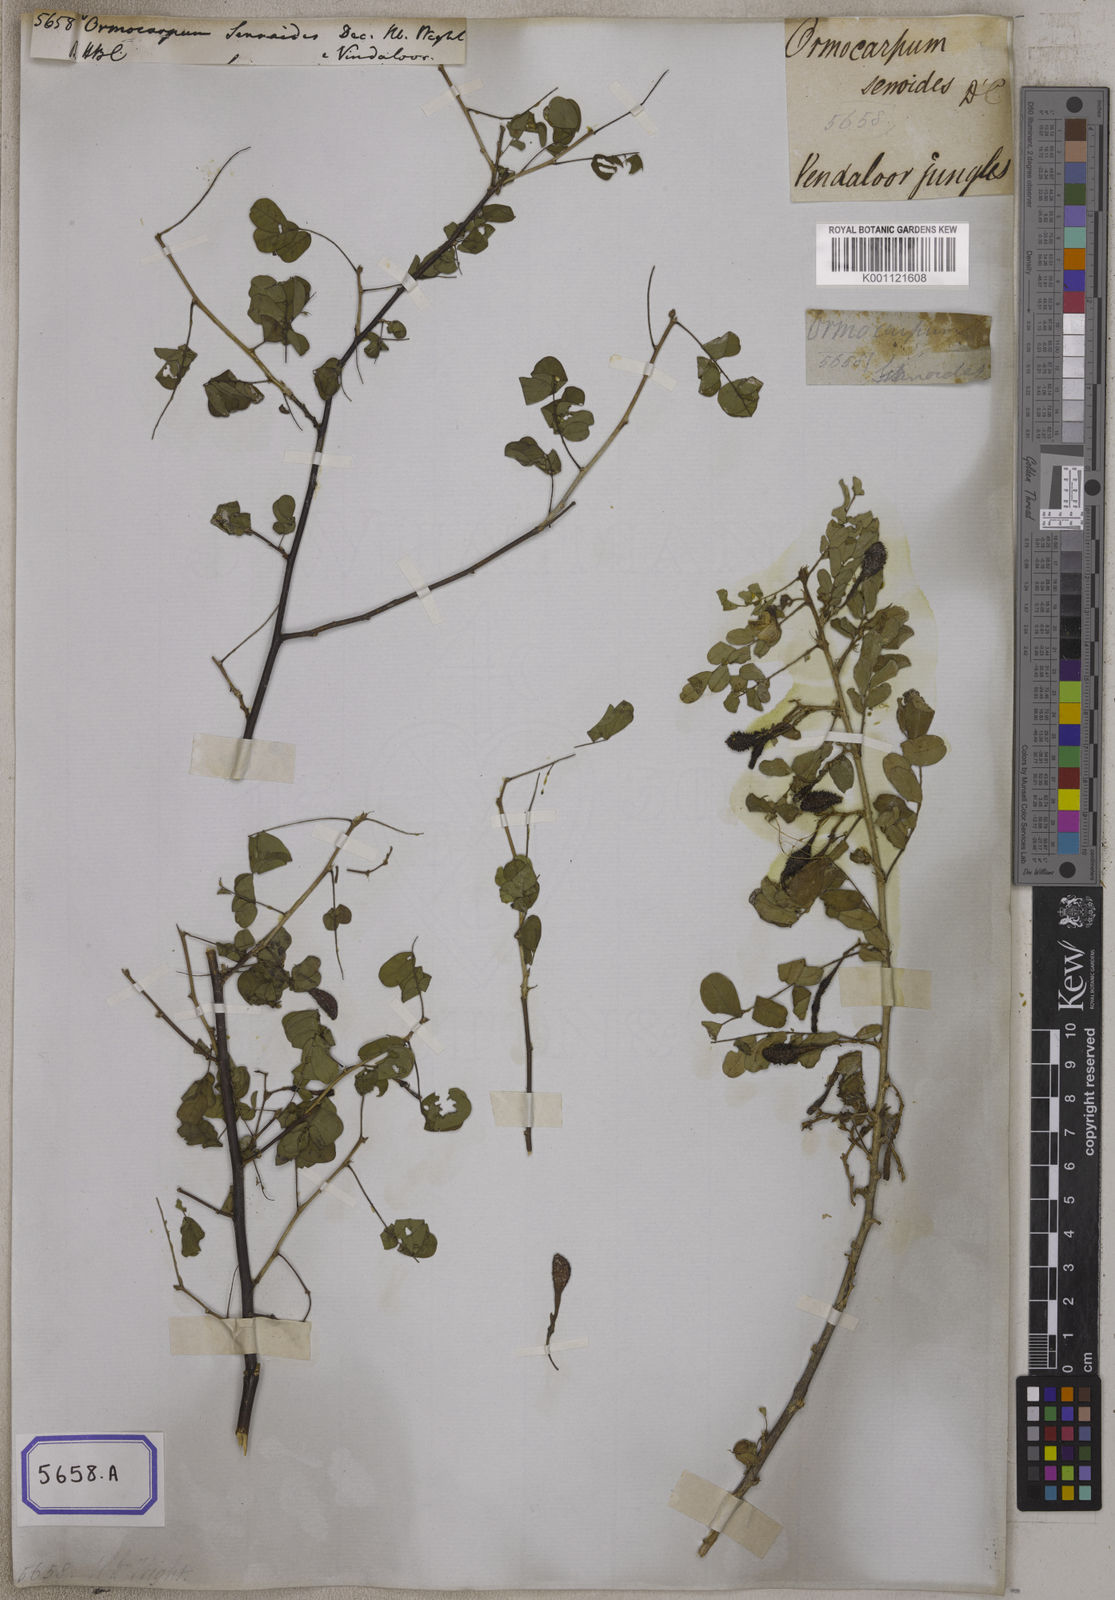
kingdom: Plantae
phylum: Tracheophyta
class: Magnoliopsida
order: Fabales
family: Fabaceae
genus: Ormocarpum
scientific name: Ormocarpum sennoides
